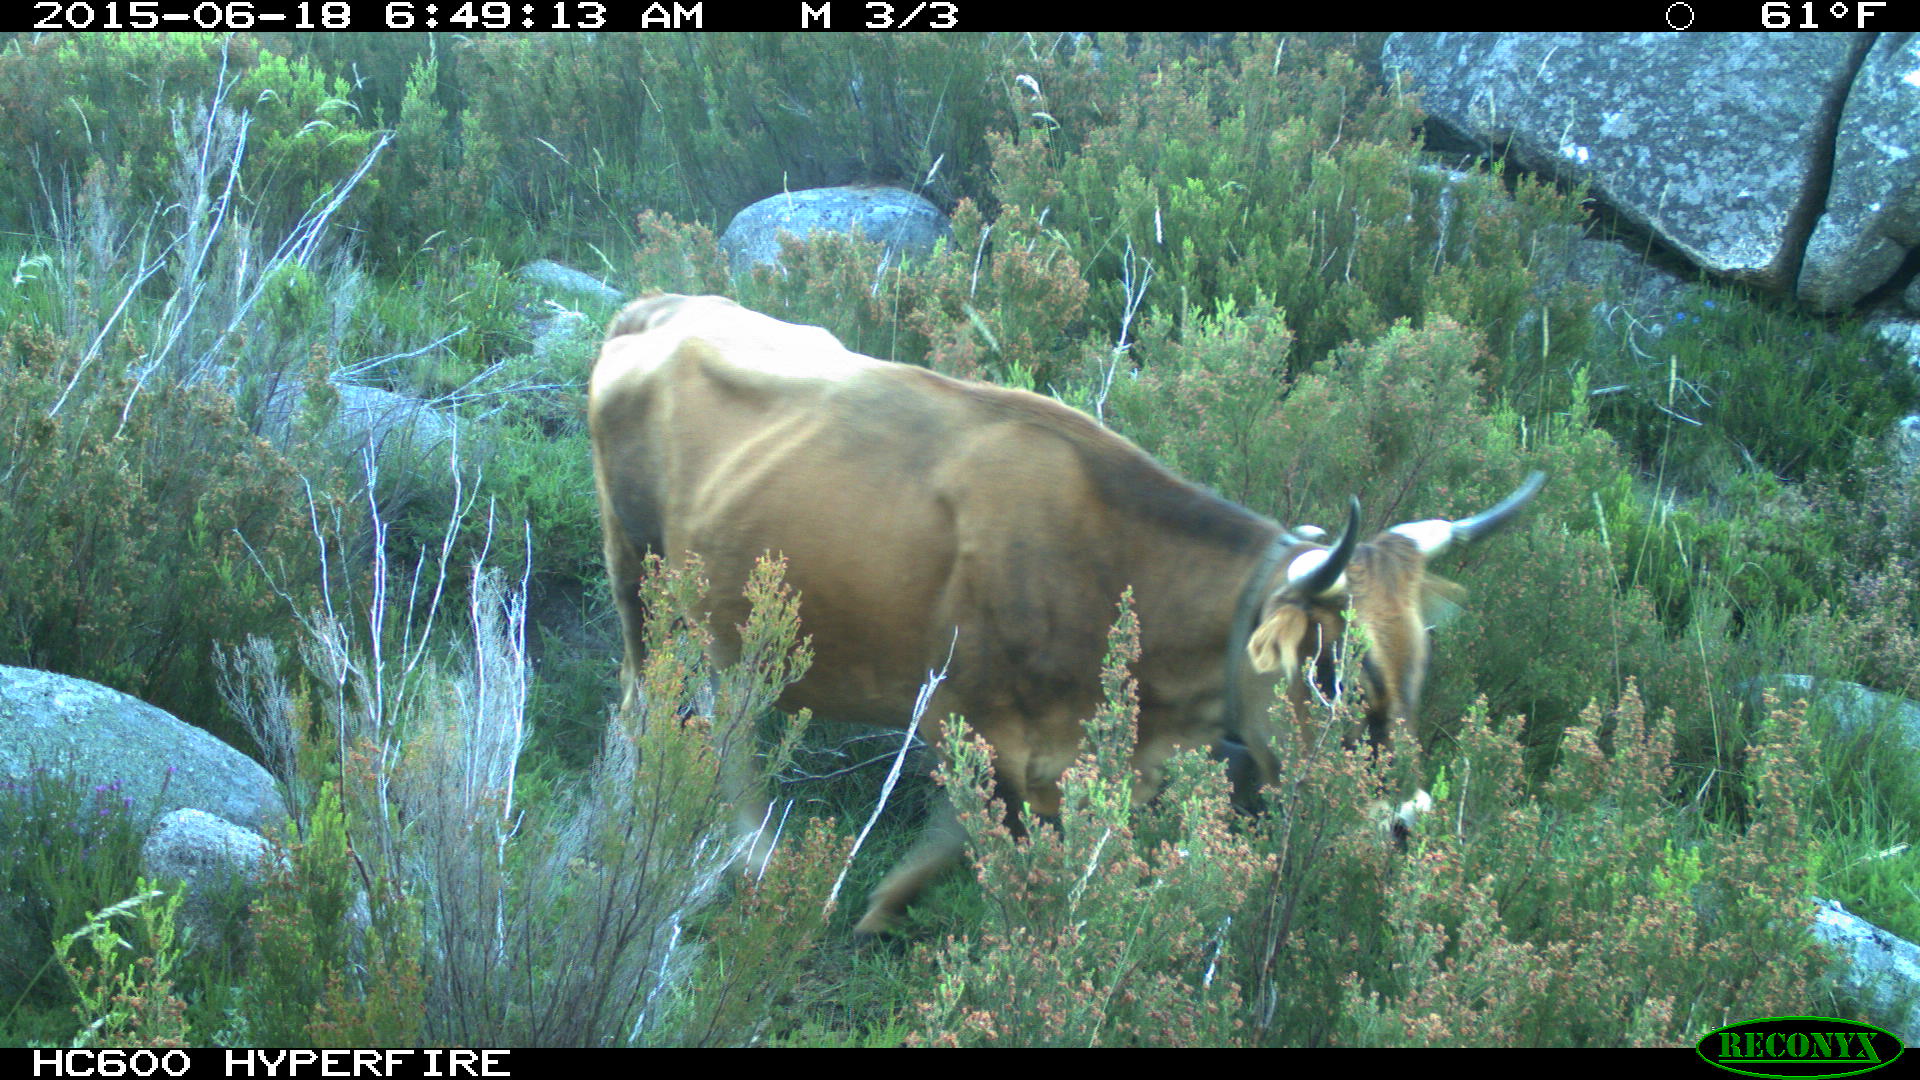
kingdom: Animalia
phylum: Chordata
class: Mammalia
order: Artiodactyla
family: Bovidae
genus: Bos
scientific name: Bos taurus
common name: Domesticated cattle
